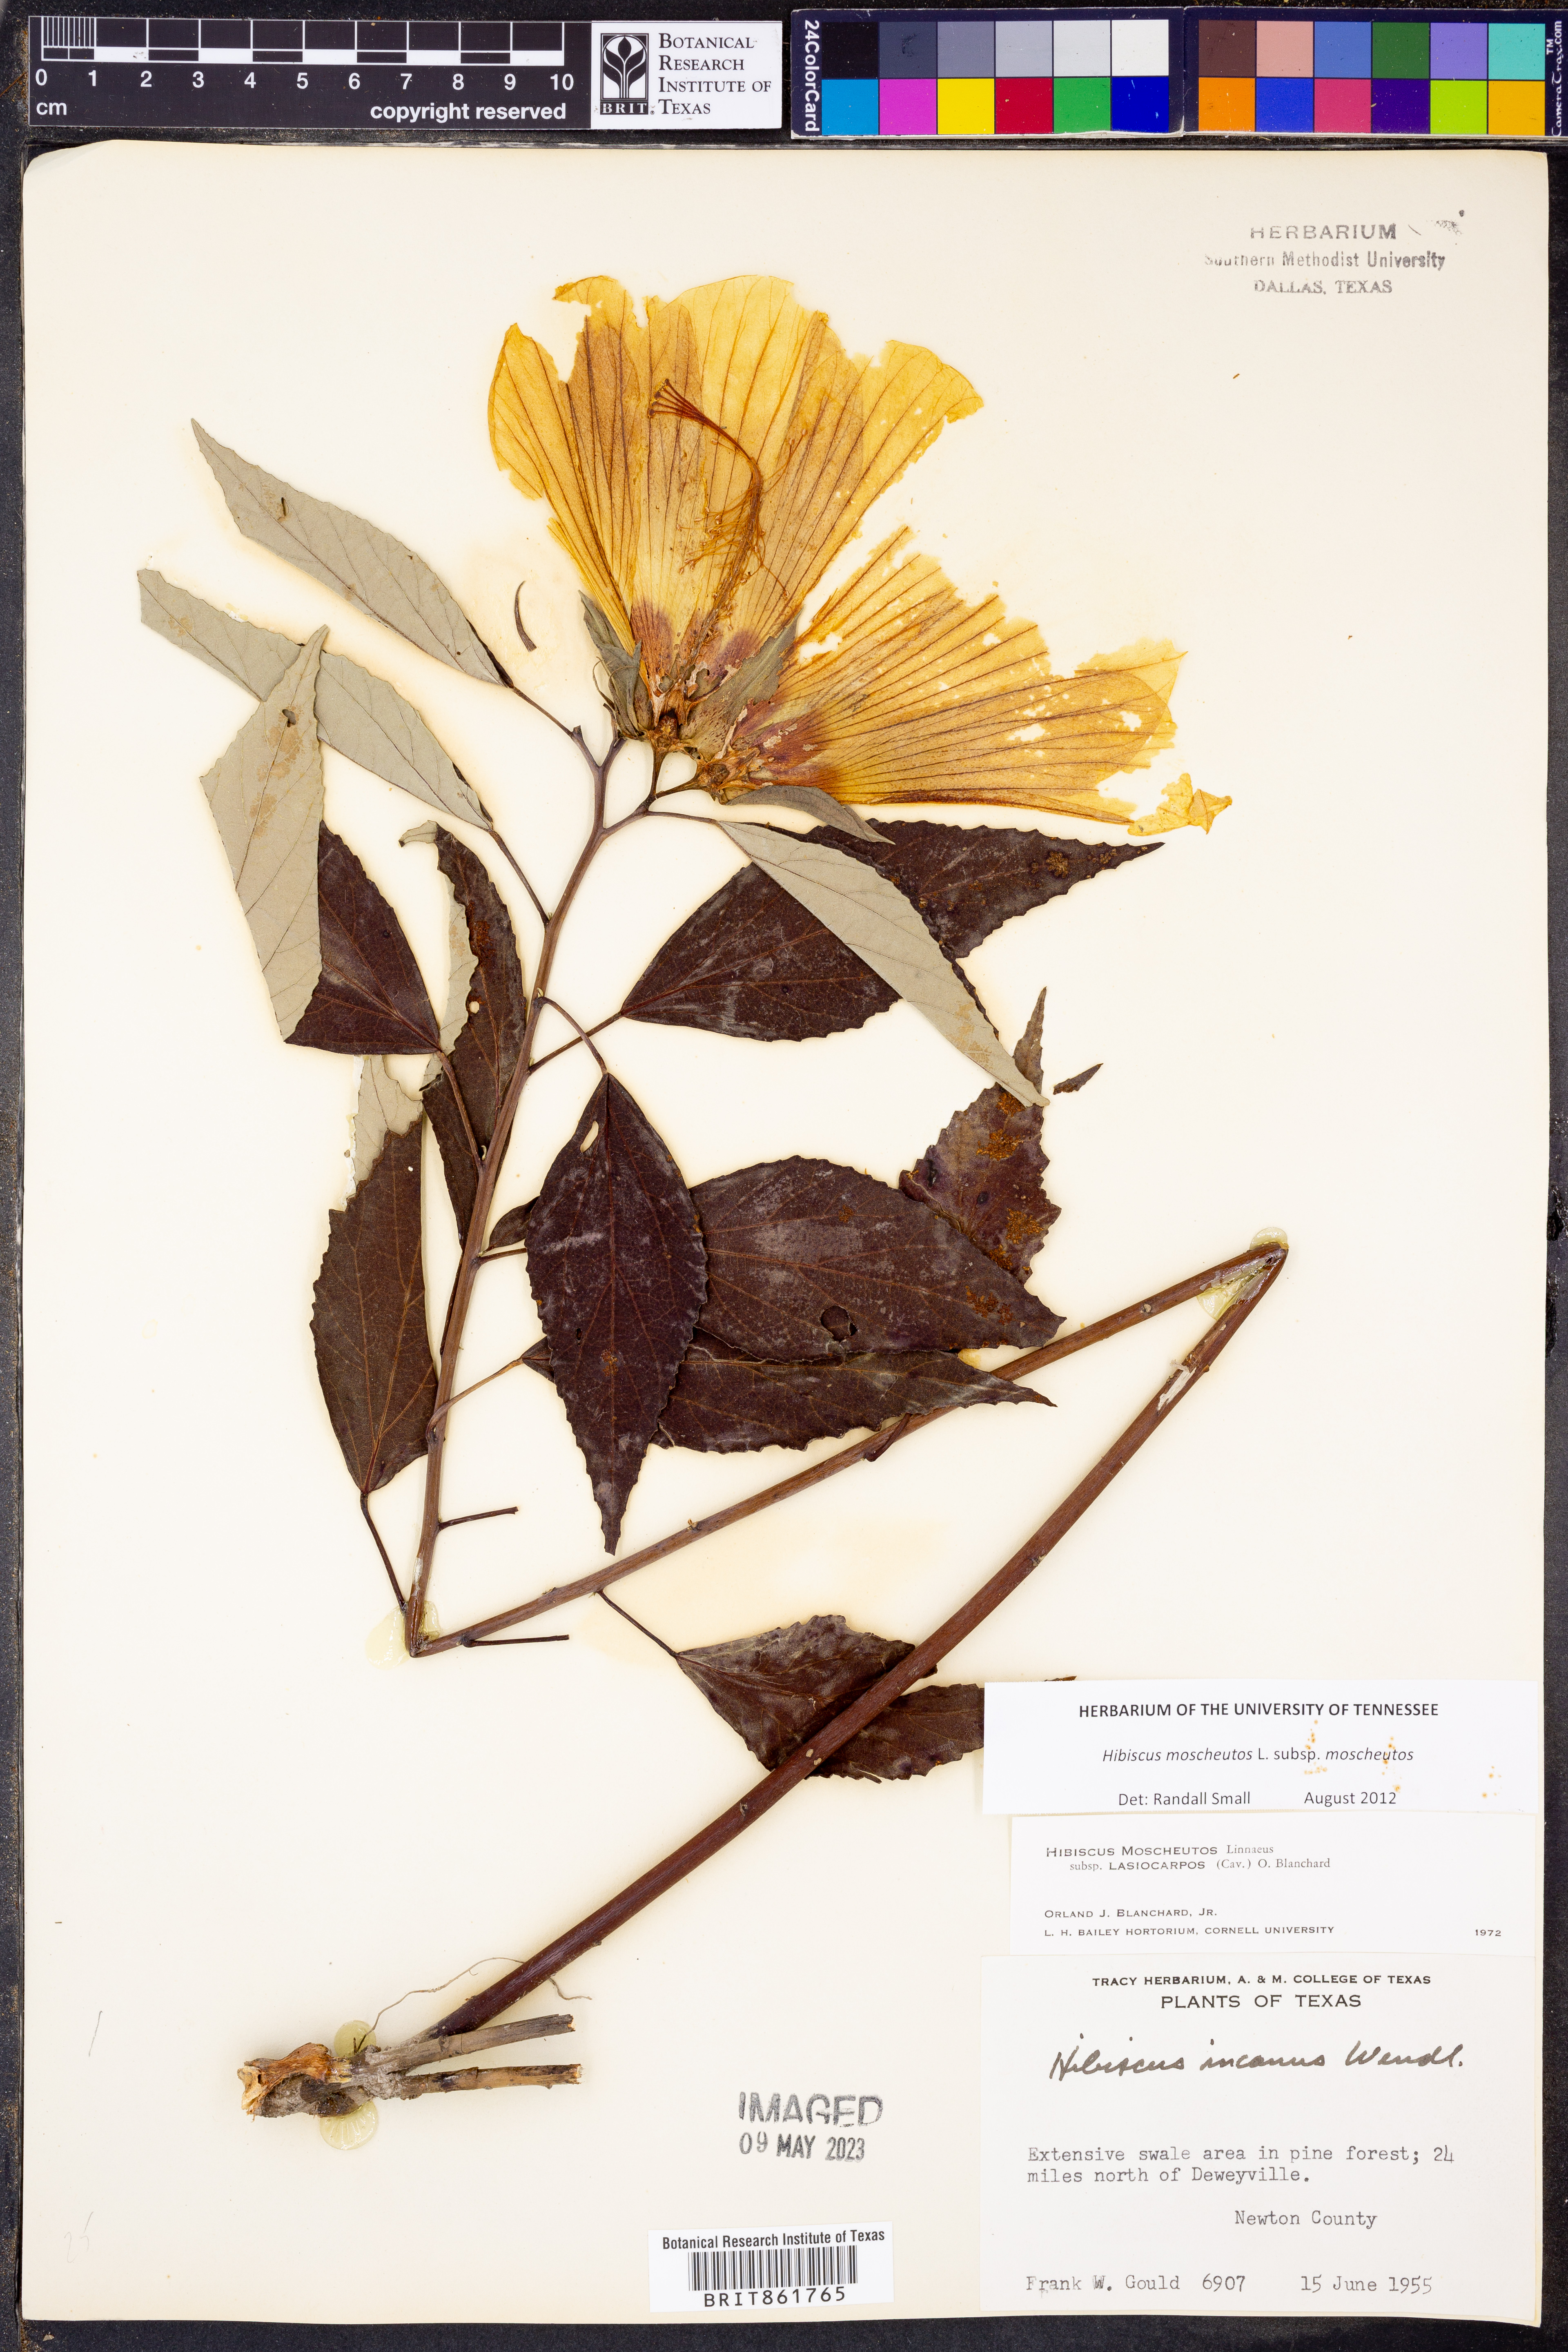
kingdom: Plantae
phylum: Tracheophyta
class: Magnoliopsida
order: Malvales
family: Malvaceae
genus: Hibiscus
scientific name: Hibiscus moscheutos
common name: Common rose-mallow
